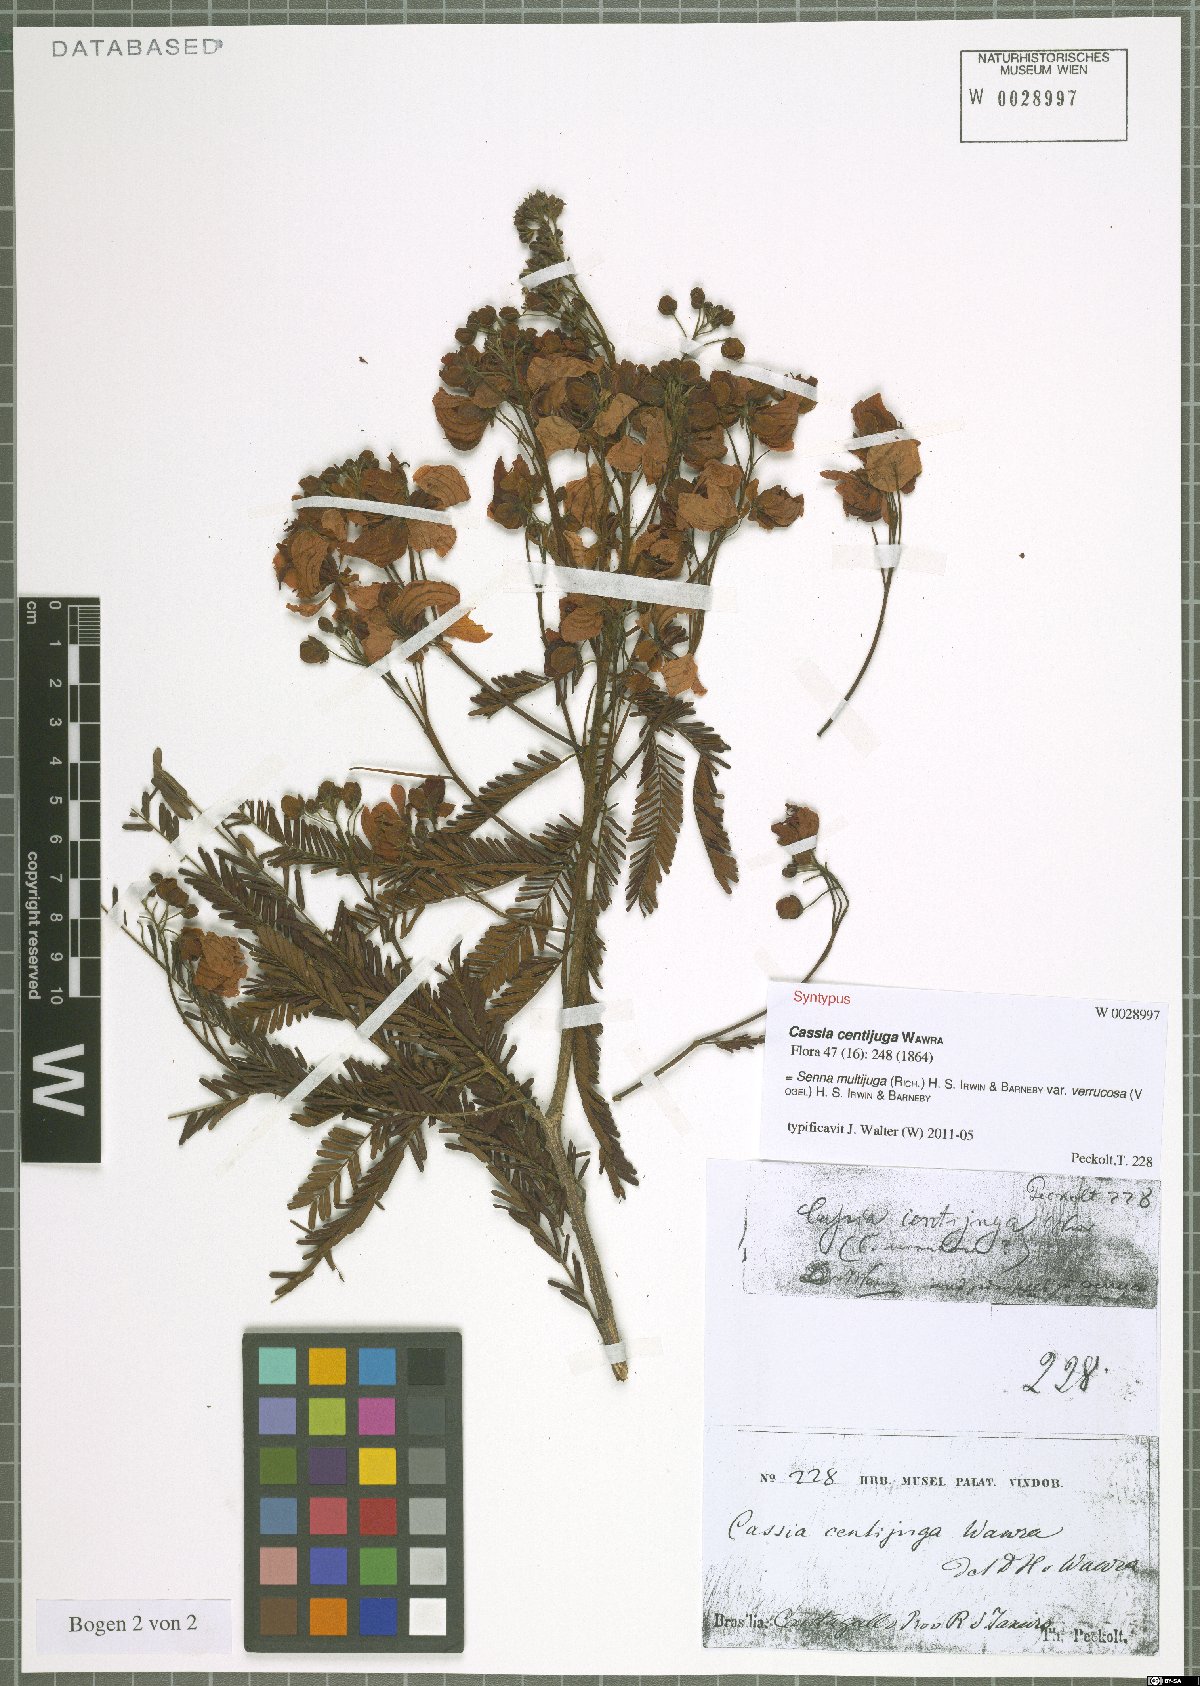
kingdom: Plantae
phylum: Tracheophyta
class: Magnoliopsida
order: Fabales
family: Fabaceae
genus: Senna
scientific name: Senna multijuga
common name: False sicklepod
